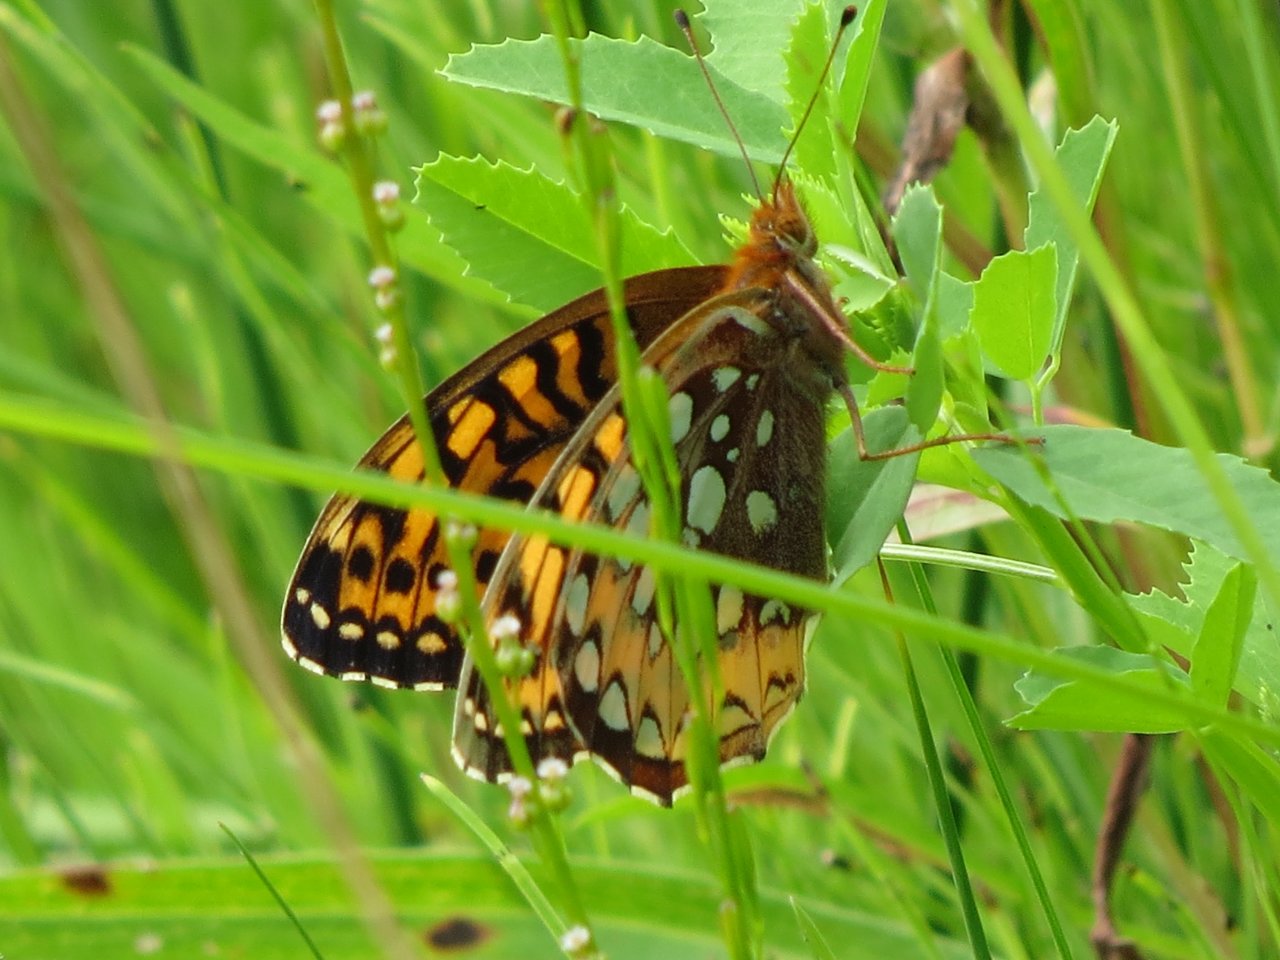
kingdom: Animalia
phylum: Arthropoda
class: Insecta
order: Lepidoptera
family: Nymphalidae
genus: Speyeria
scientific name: Speyeria cybele
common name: Great Spangled Fritillary
